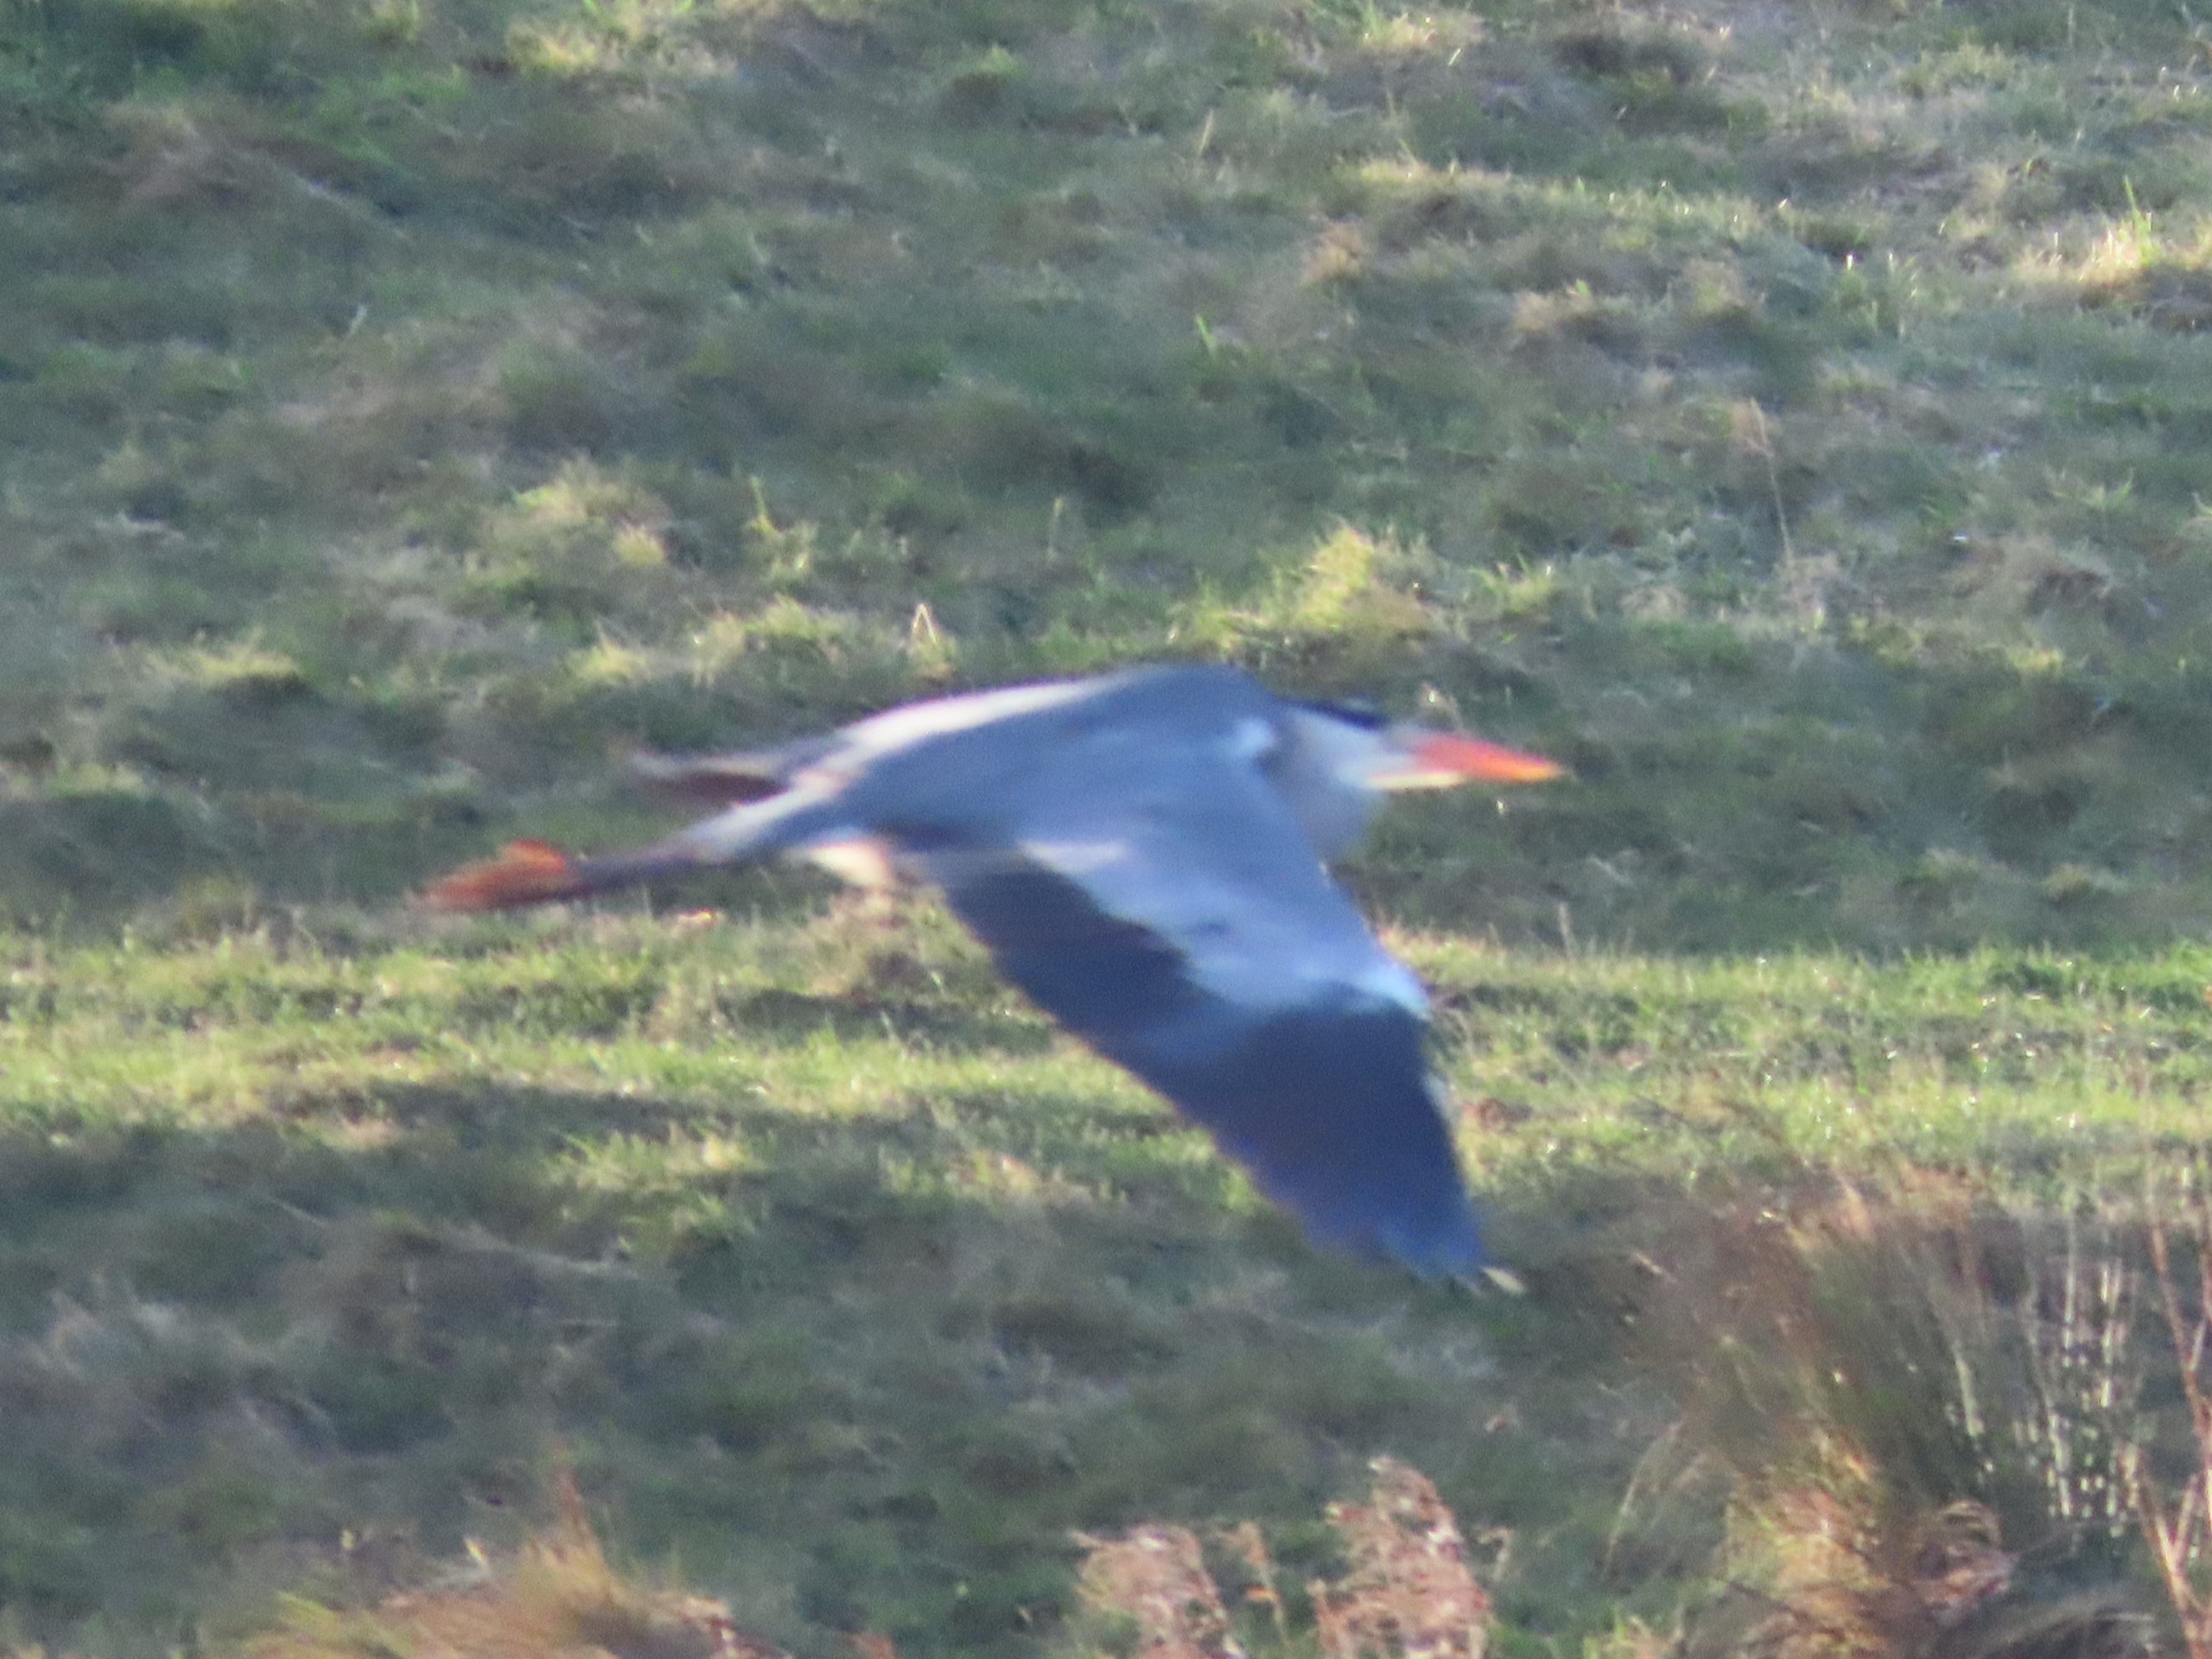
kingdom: Animalia
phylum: Chordata
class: Aves
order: Pelecaniformes
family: Ardeidae
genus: Ardea
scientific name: Ardea cinerea
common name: Fiskehejre
